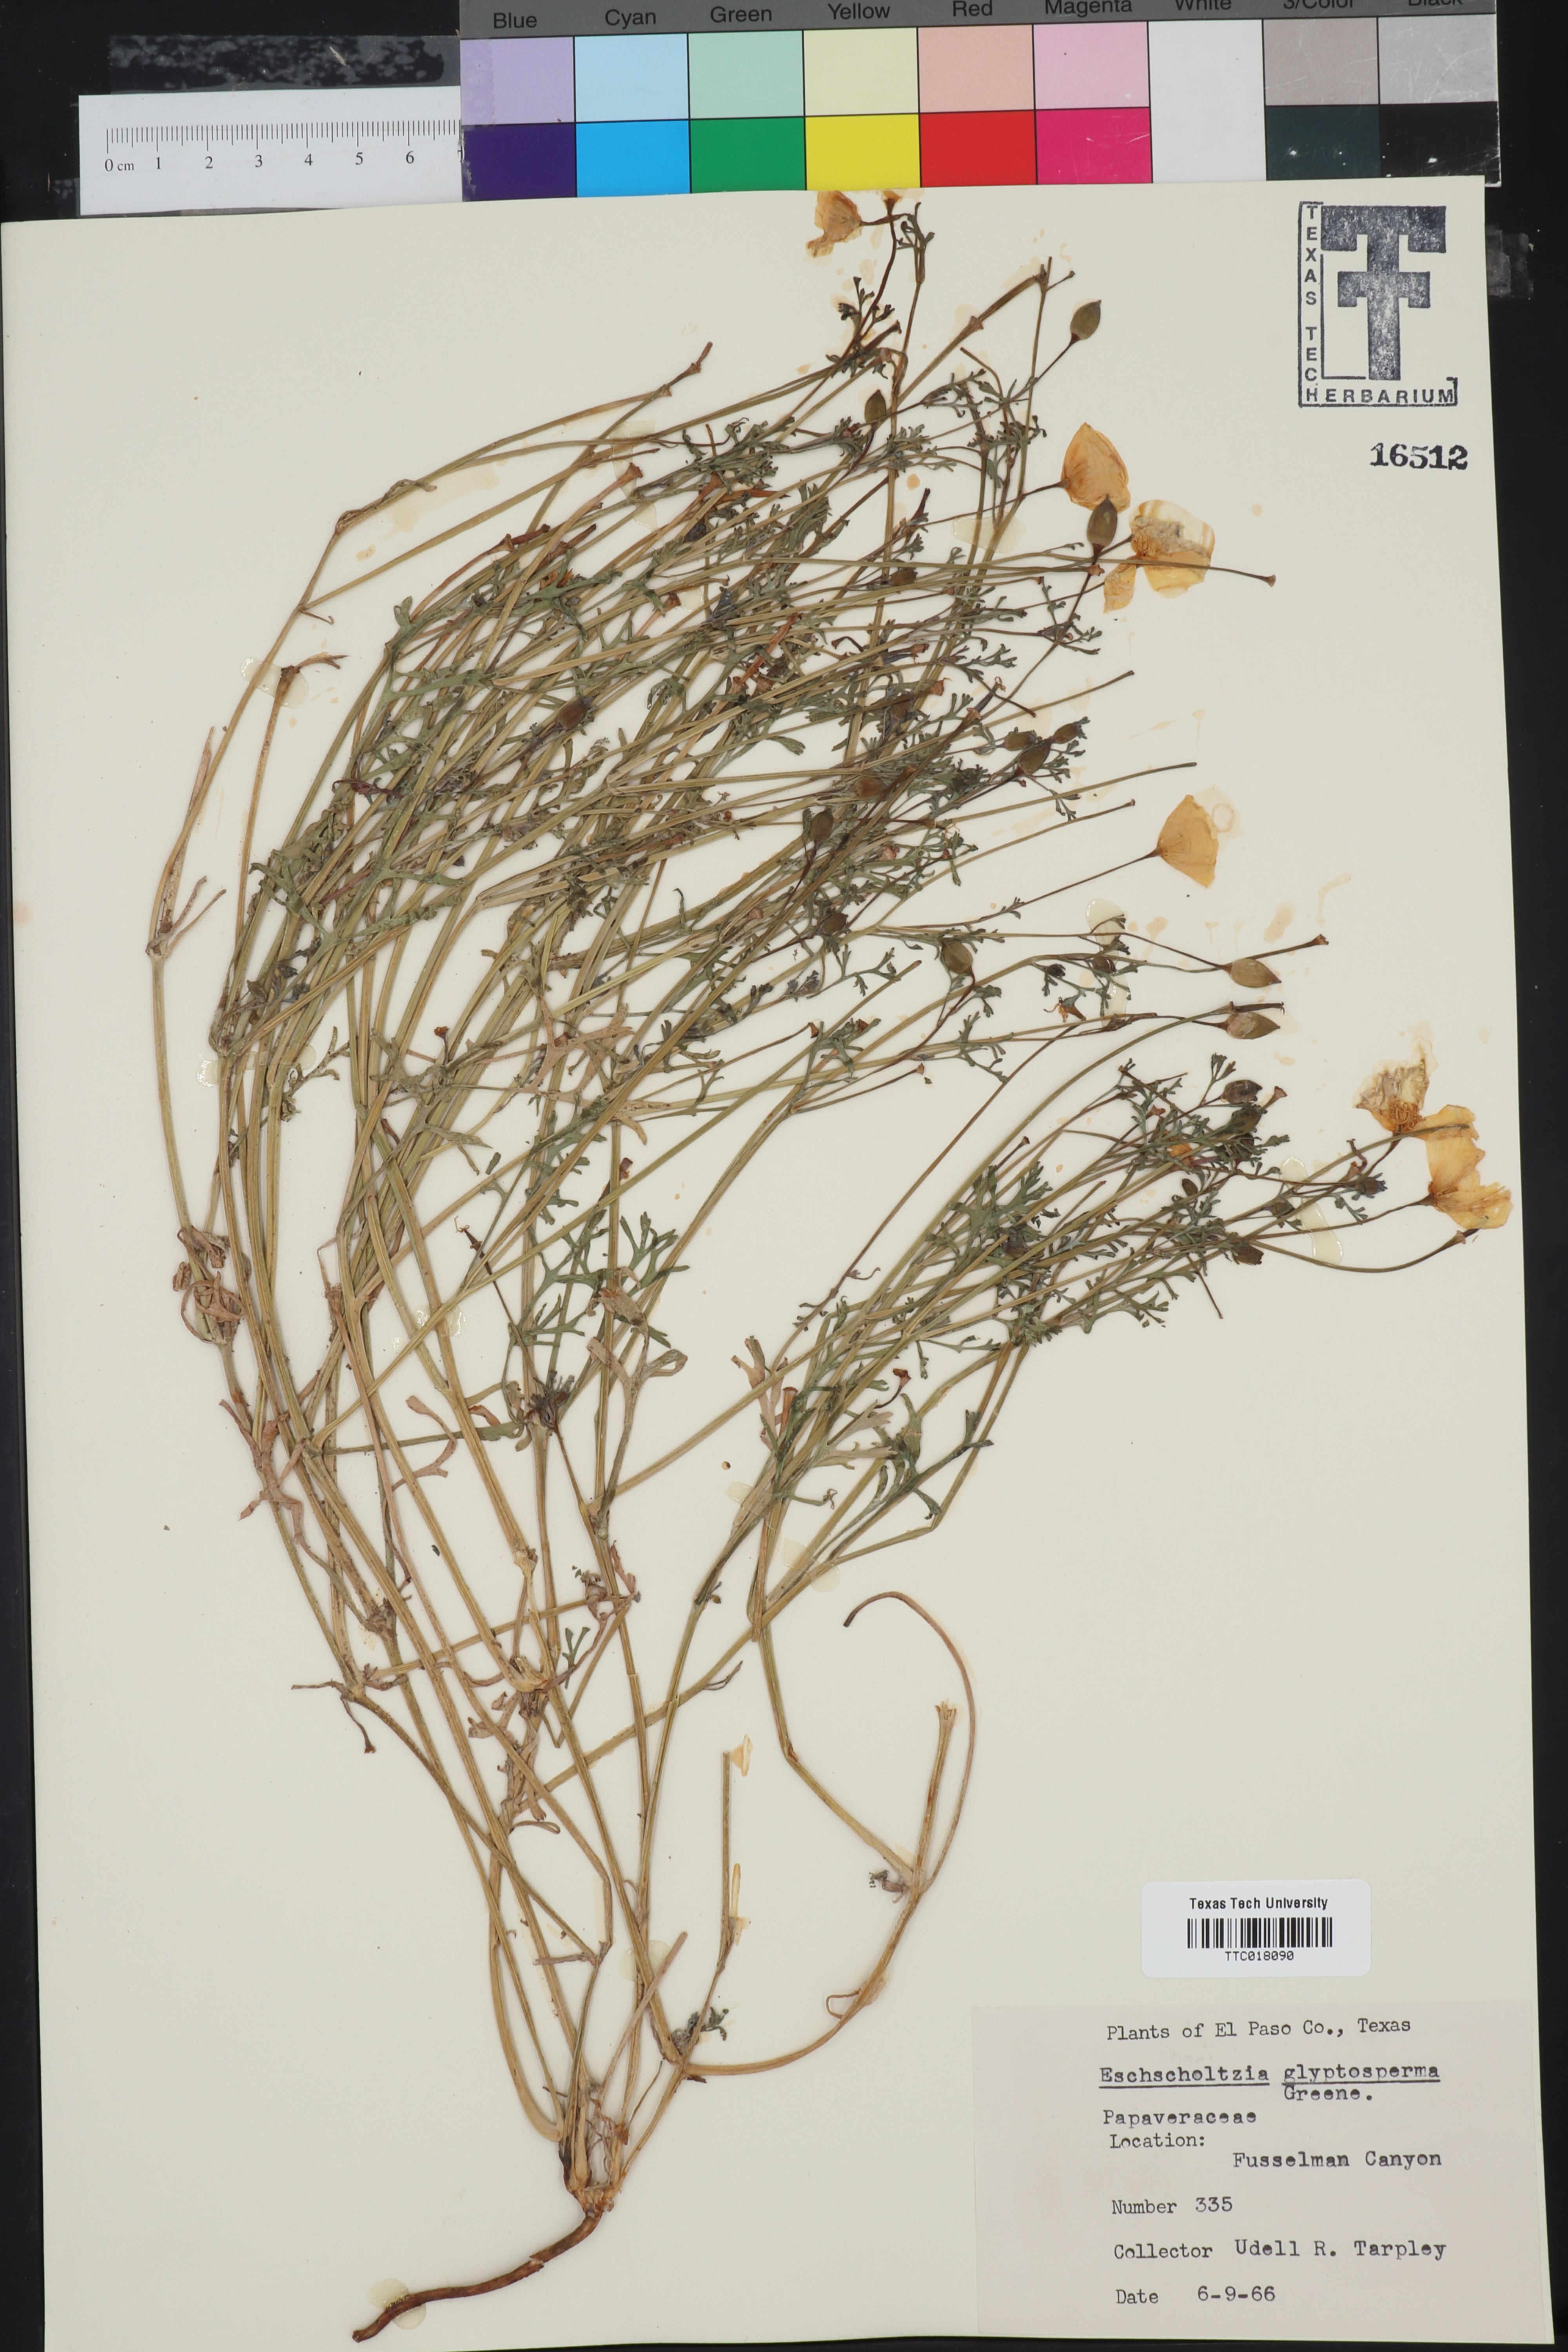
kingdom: Plantae
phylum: Tracheophyta
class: Magnoliopsida
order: Ranunculales
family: Papaveraceae
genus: Eschscholzia
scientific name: Eschscholzia glyptosperma
